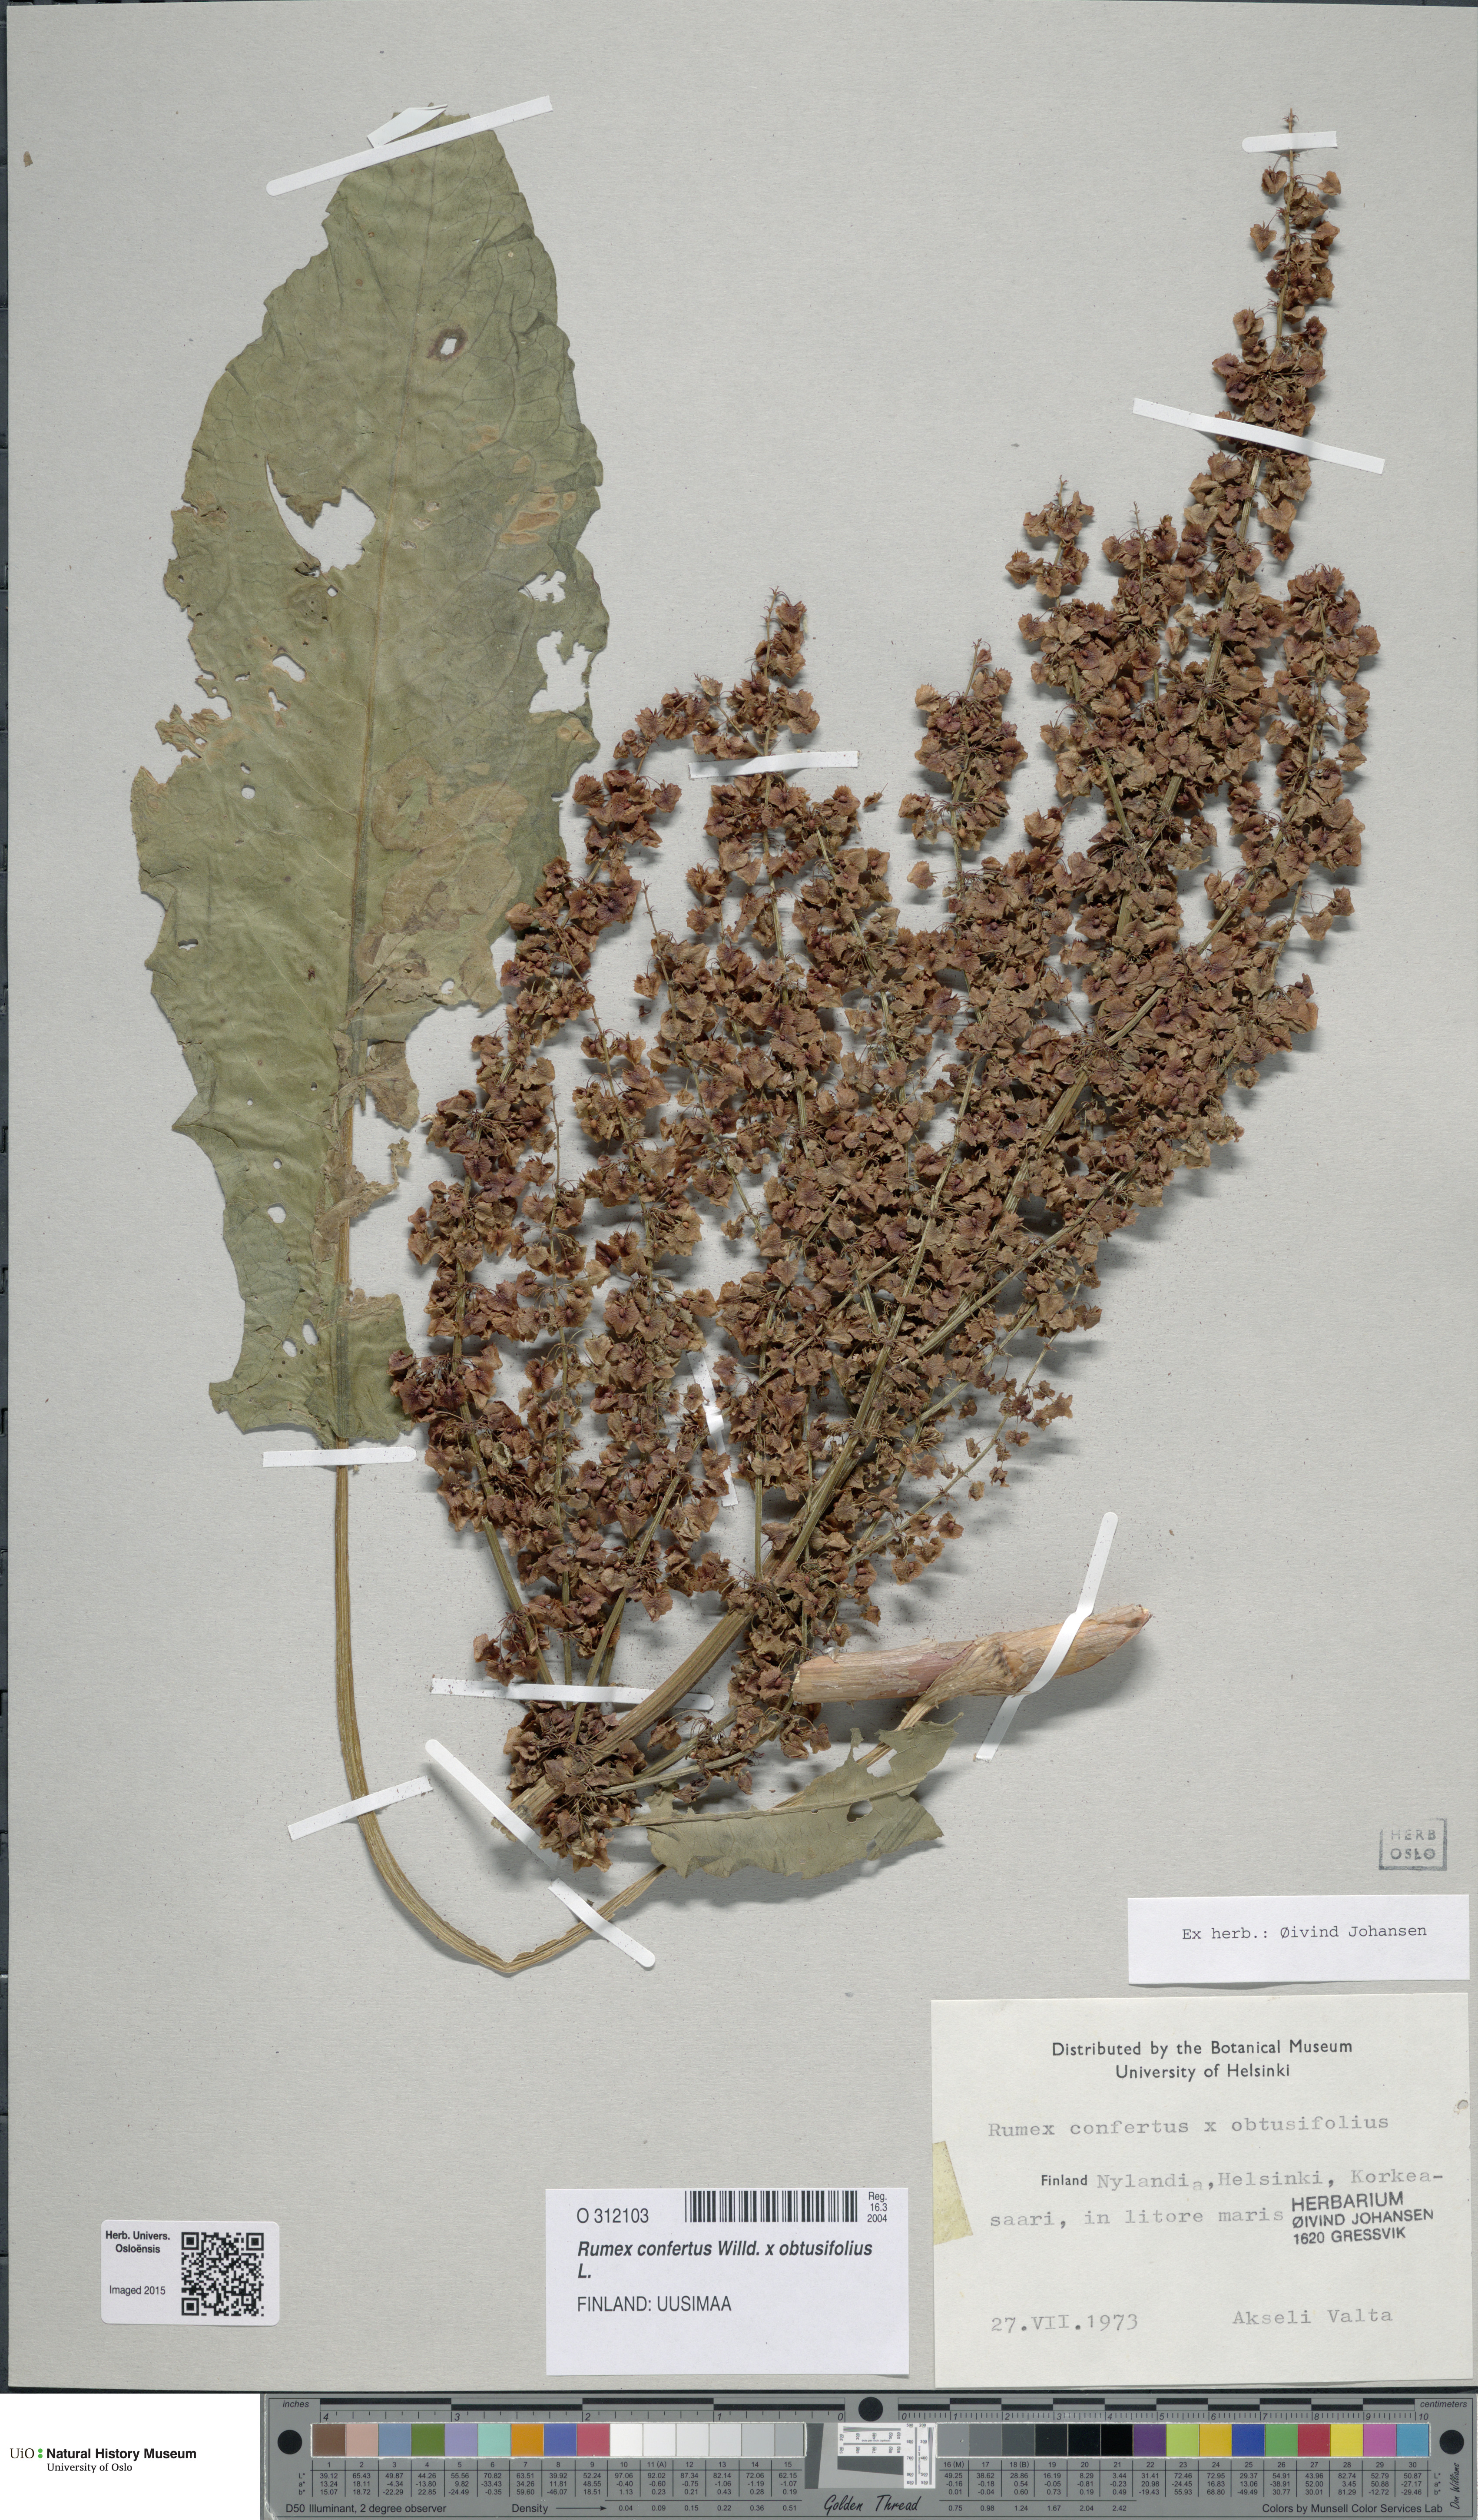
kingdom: Plantae
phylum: Tracheophyta
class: Magnoliopsida
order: Caryophyllales
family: Polygonaceae
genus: Rumex
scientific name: Rumex
